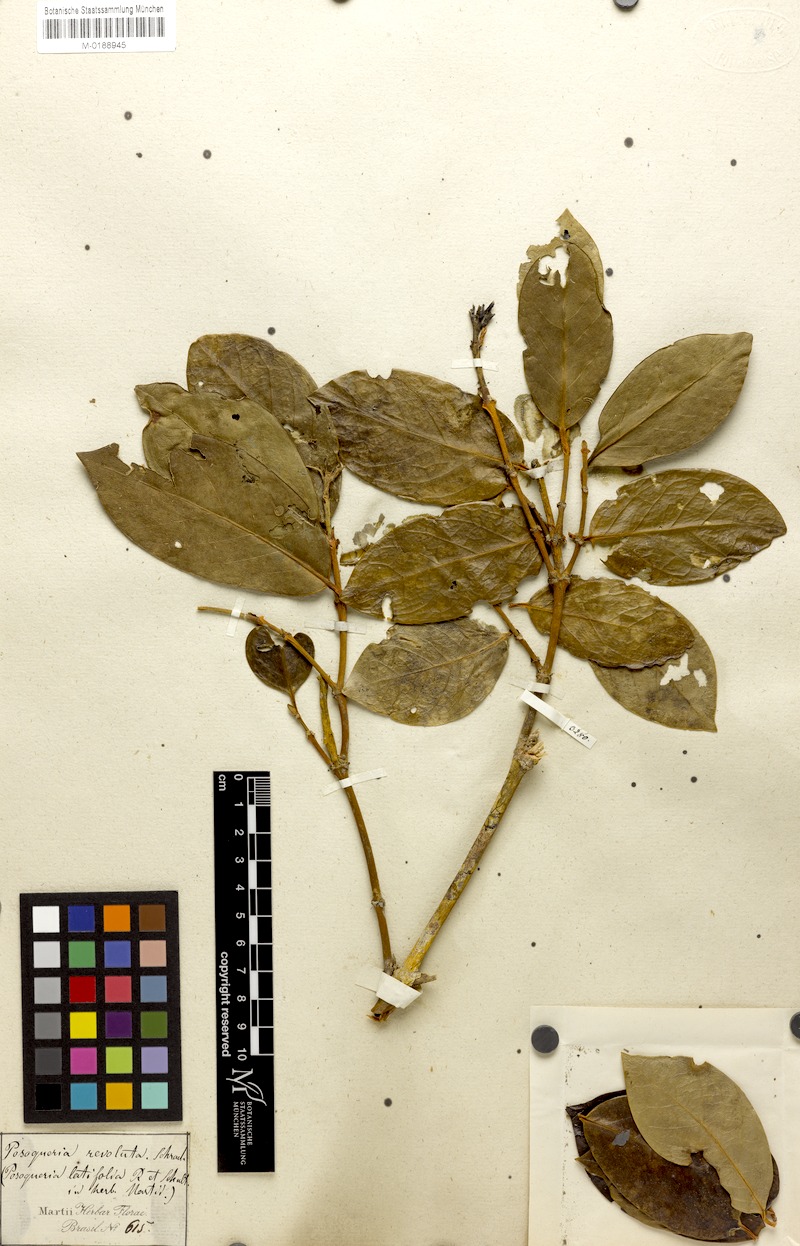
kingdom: Plantae
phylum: Tracheophyta
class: Magnoliopsida
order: Gentianales
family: Rubiaceae
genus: Posoqueria
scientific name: Posoqueria latifolia
